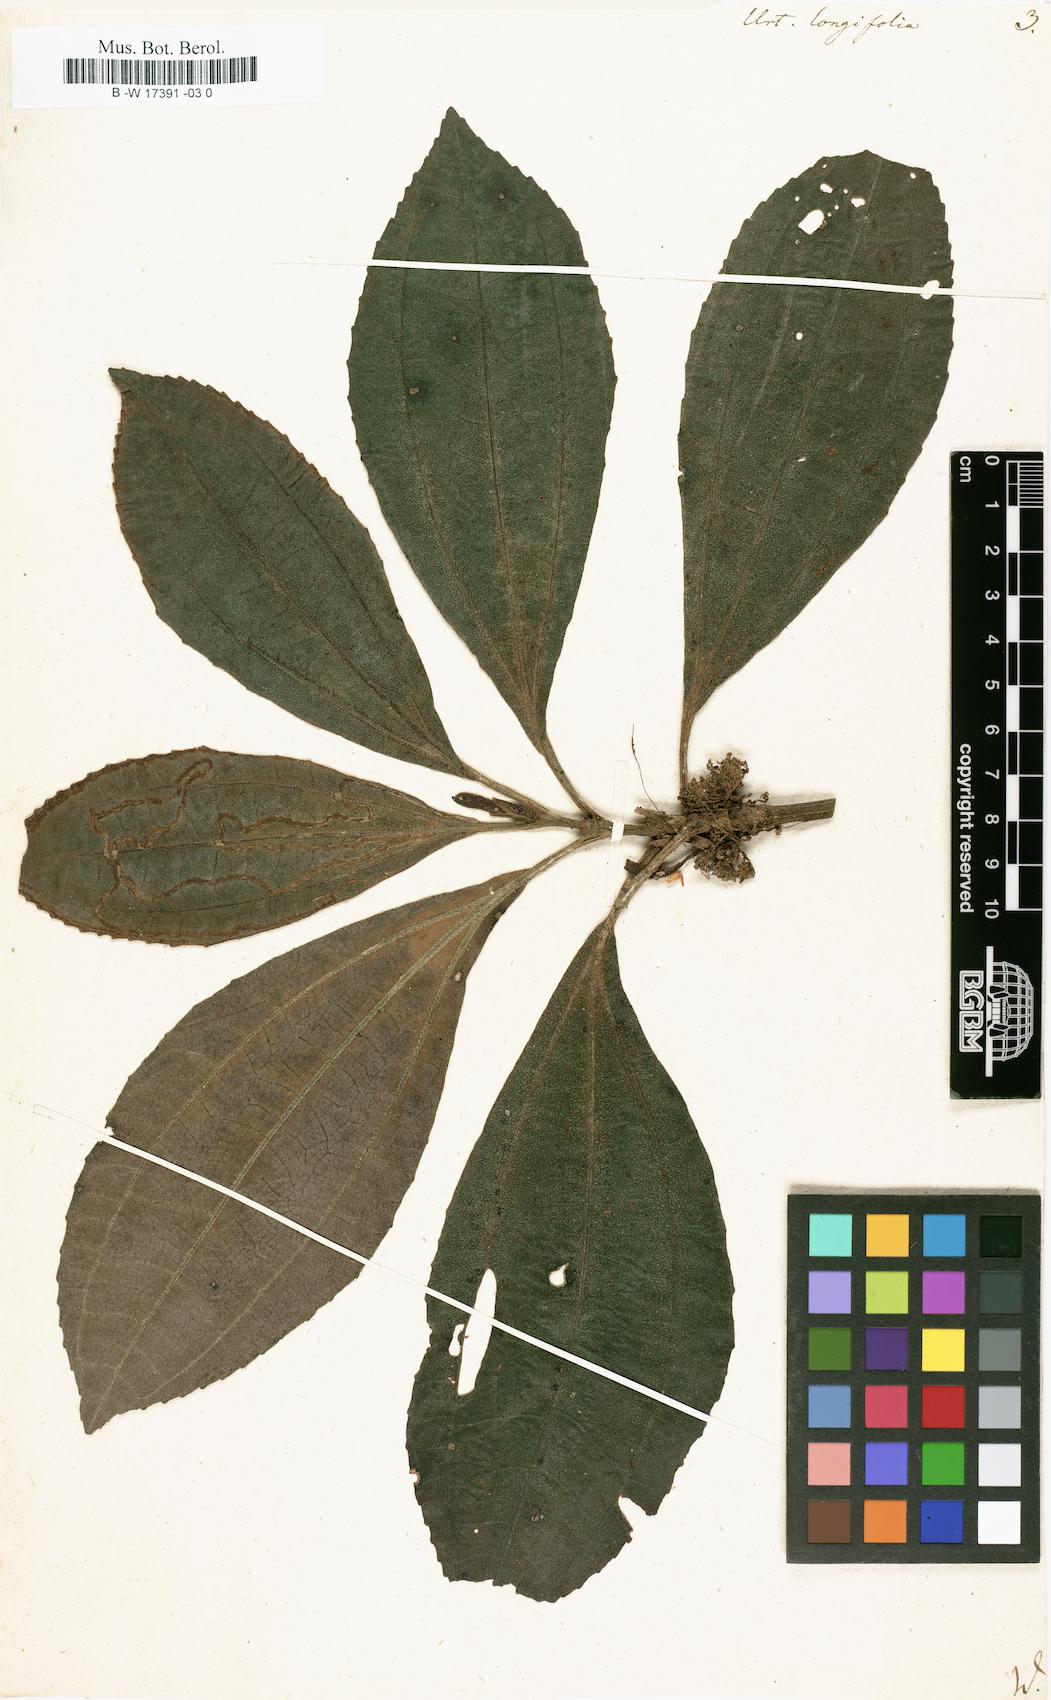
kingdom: Plantae
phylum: Tracheophyta
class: Magnoliopsida
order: Rosales
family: Urticaceae
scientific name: Urticaceae
